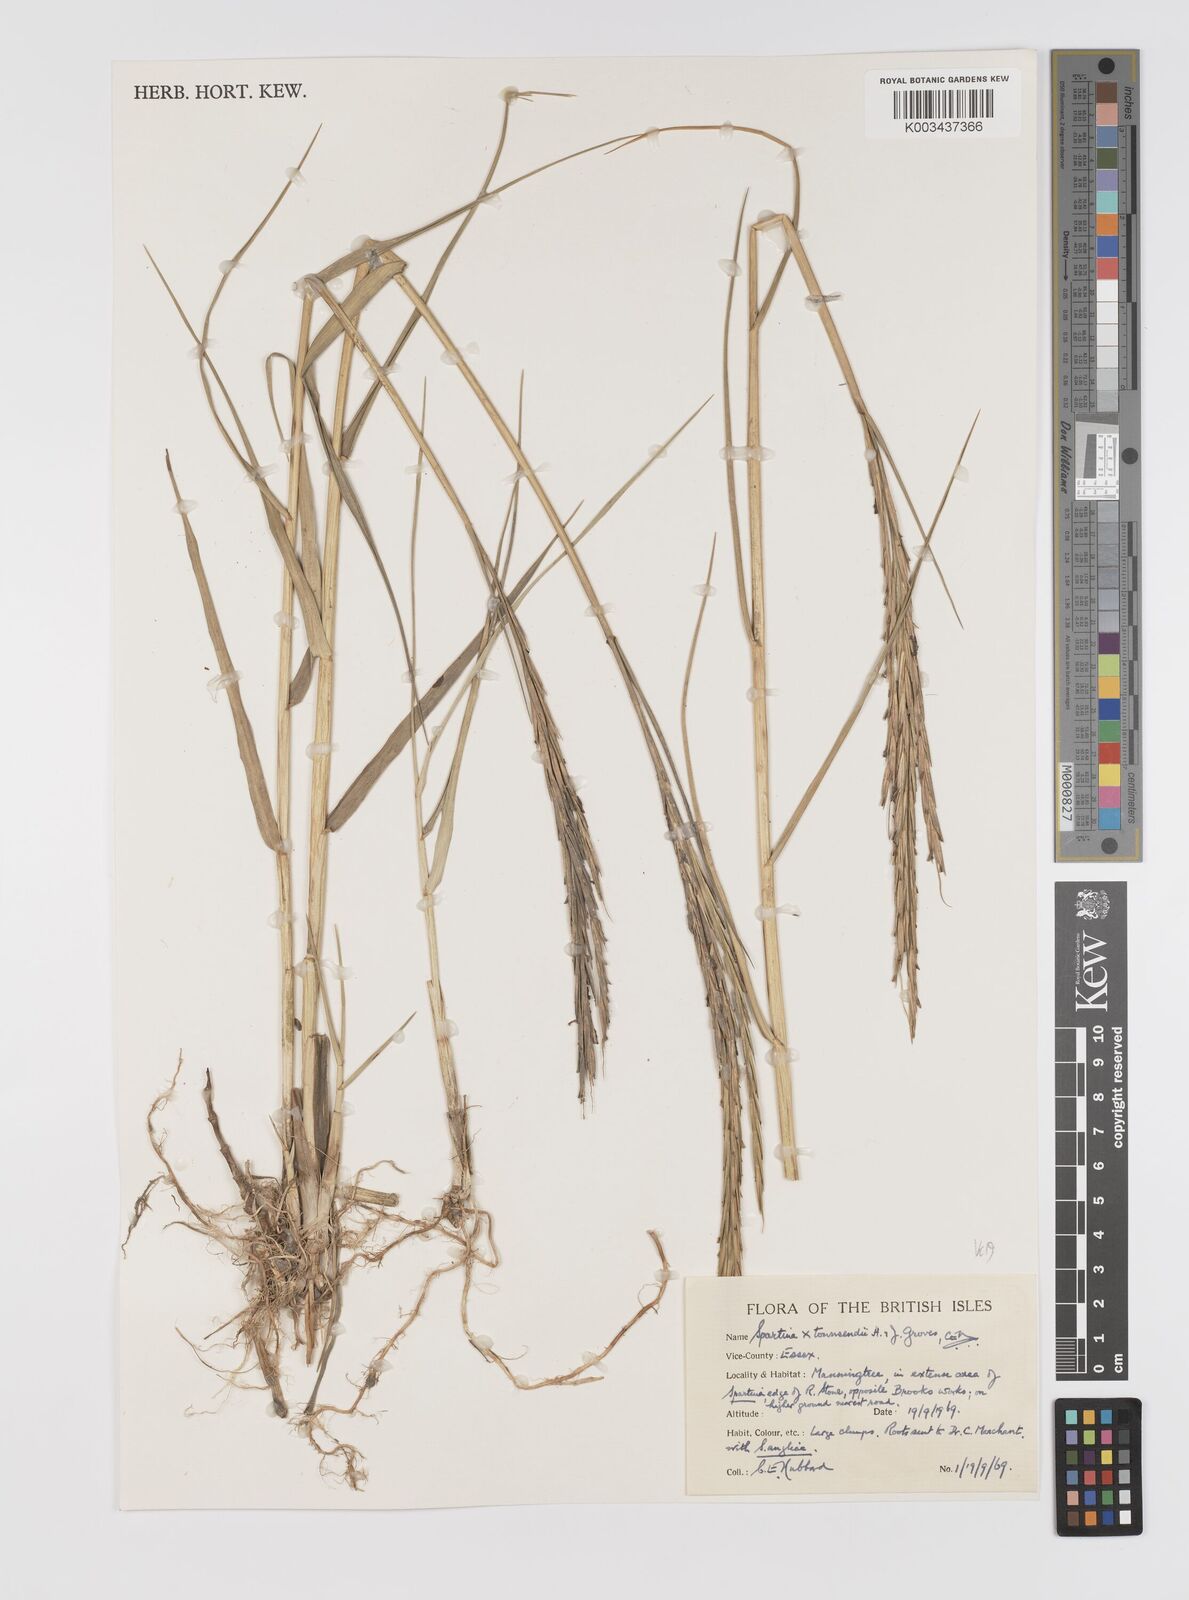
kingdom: Plantae
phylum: Tracheophyta
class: Liliopsida
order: Poales
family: Poaceae
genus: Sporobolus
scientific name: Sporobolus townsendii
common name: Townsend's cordgrass
